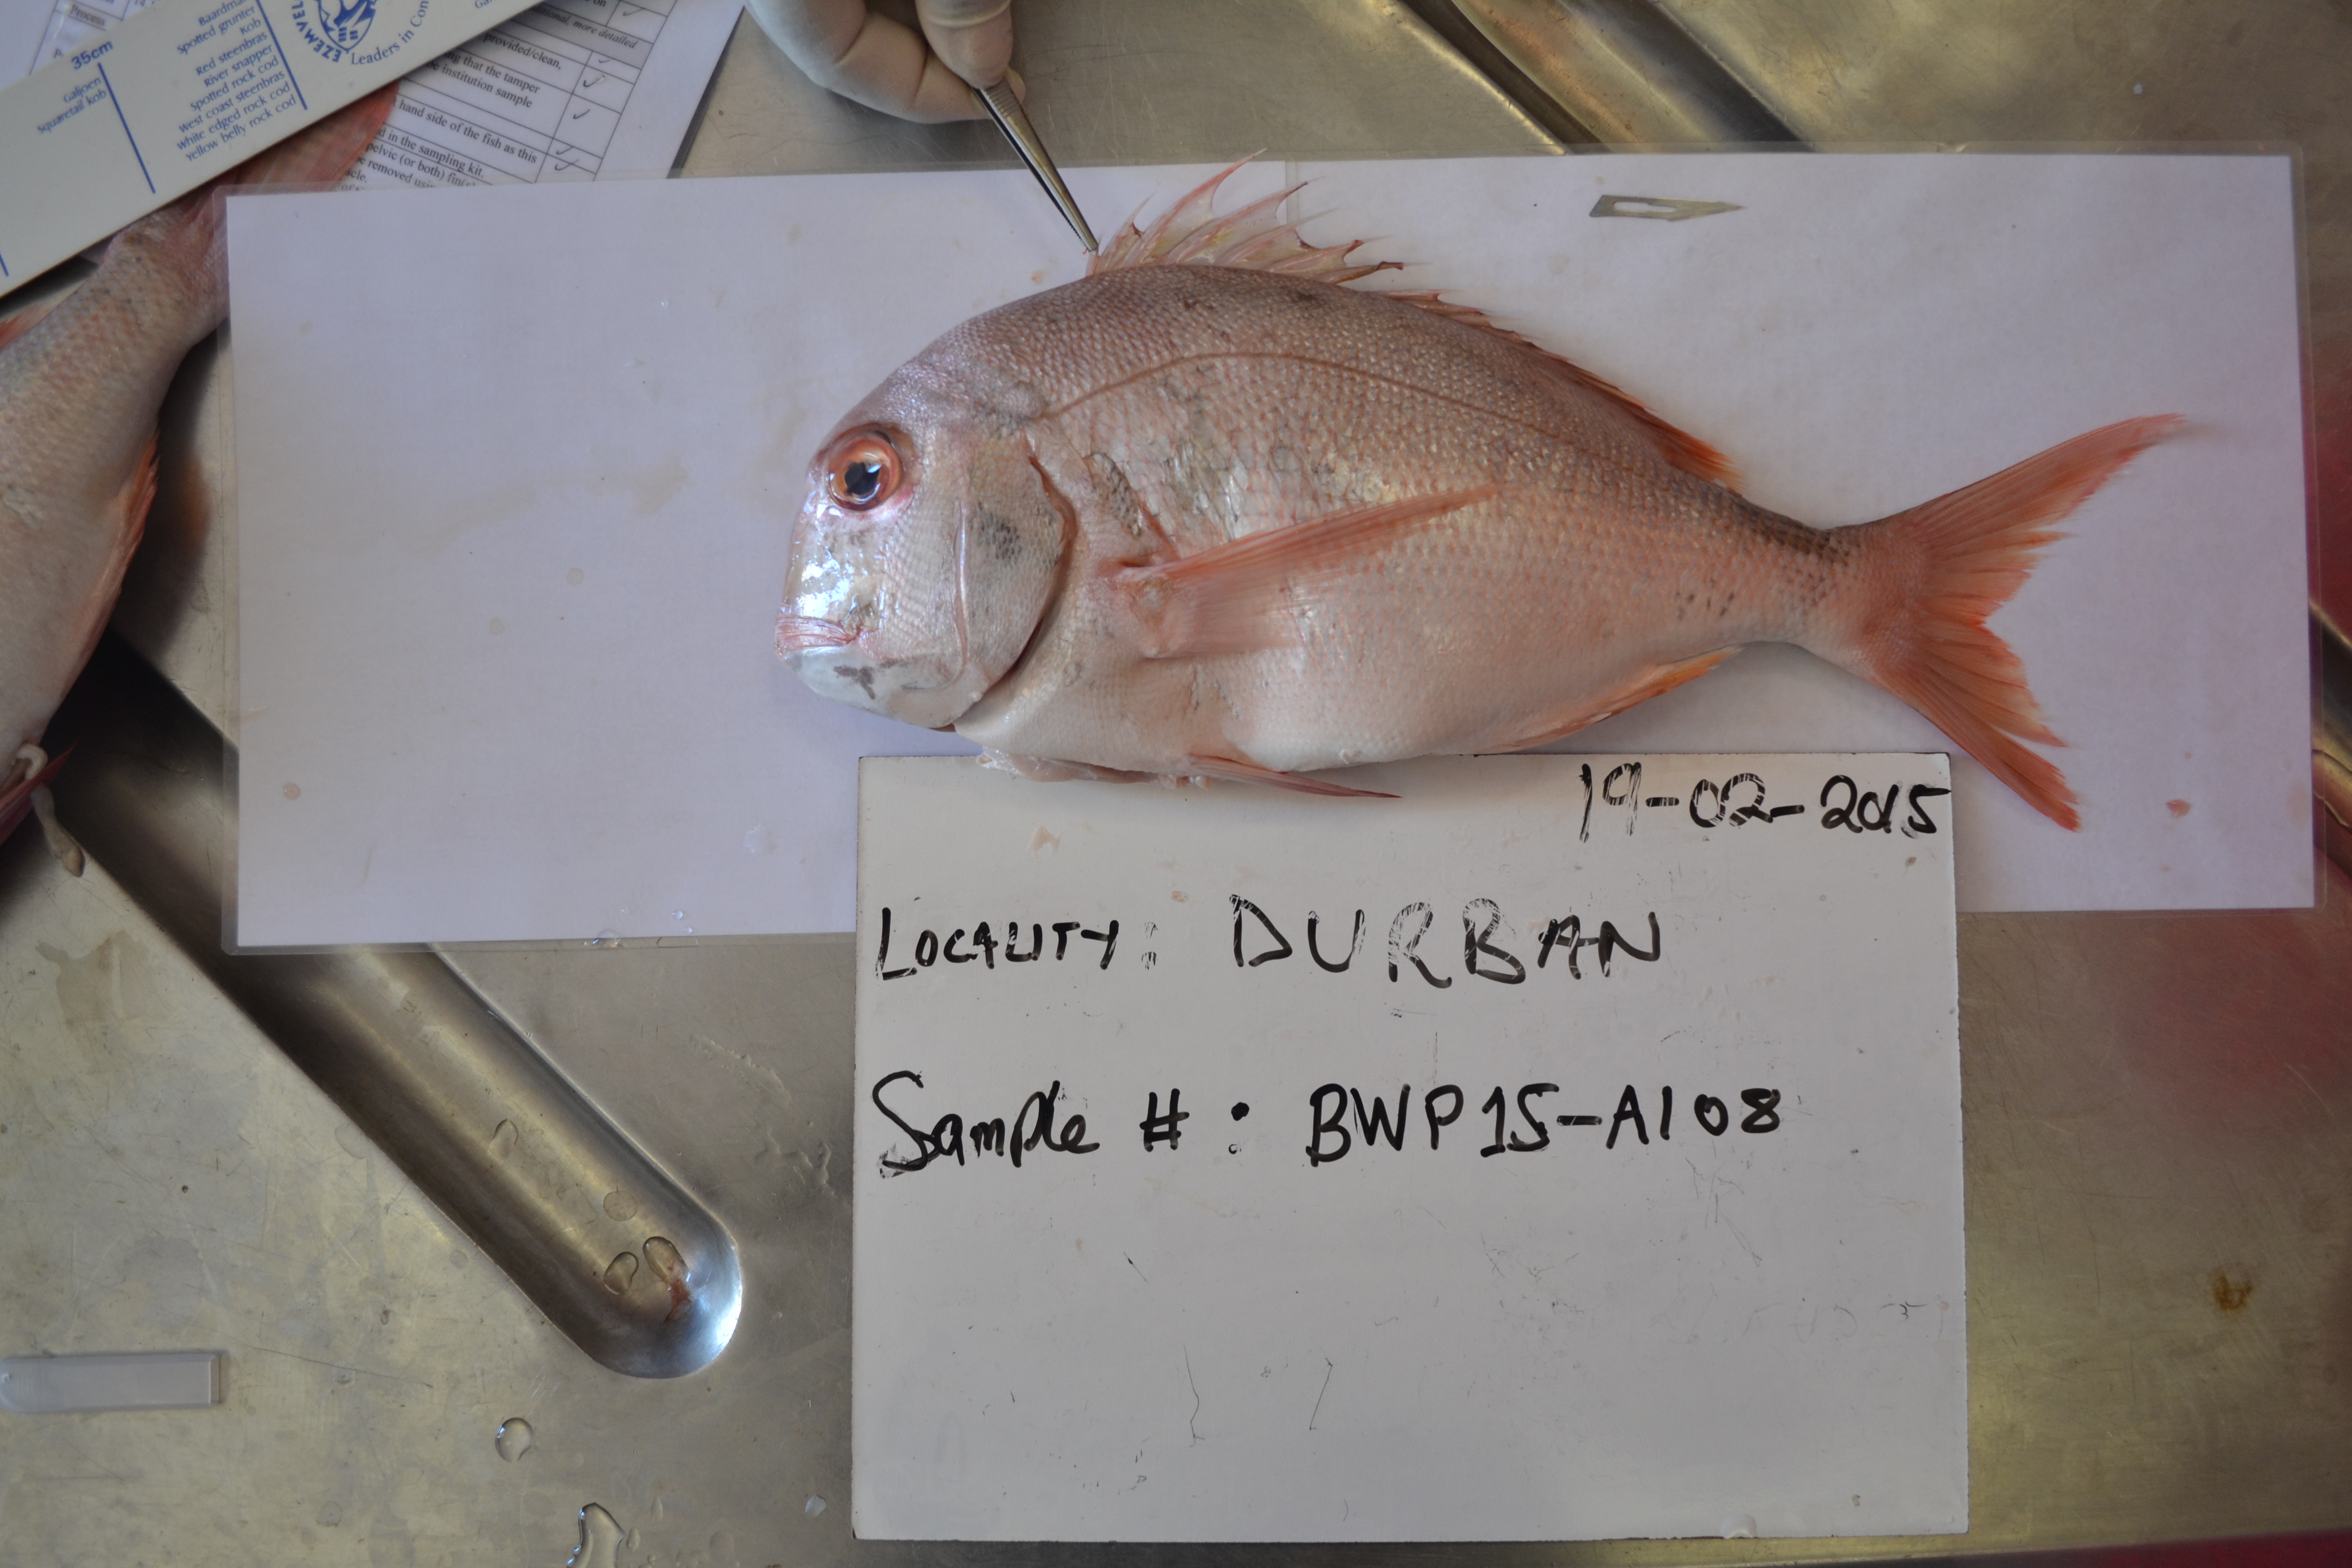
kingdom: Animalia
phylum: Chordata
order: Perciformes
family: Sparidae
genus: Chrysoblephus
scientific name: Chrysoblephus anglicus
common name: Englishman
